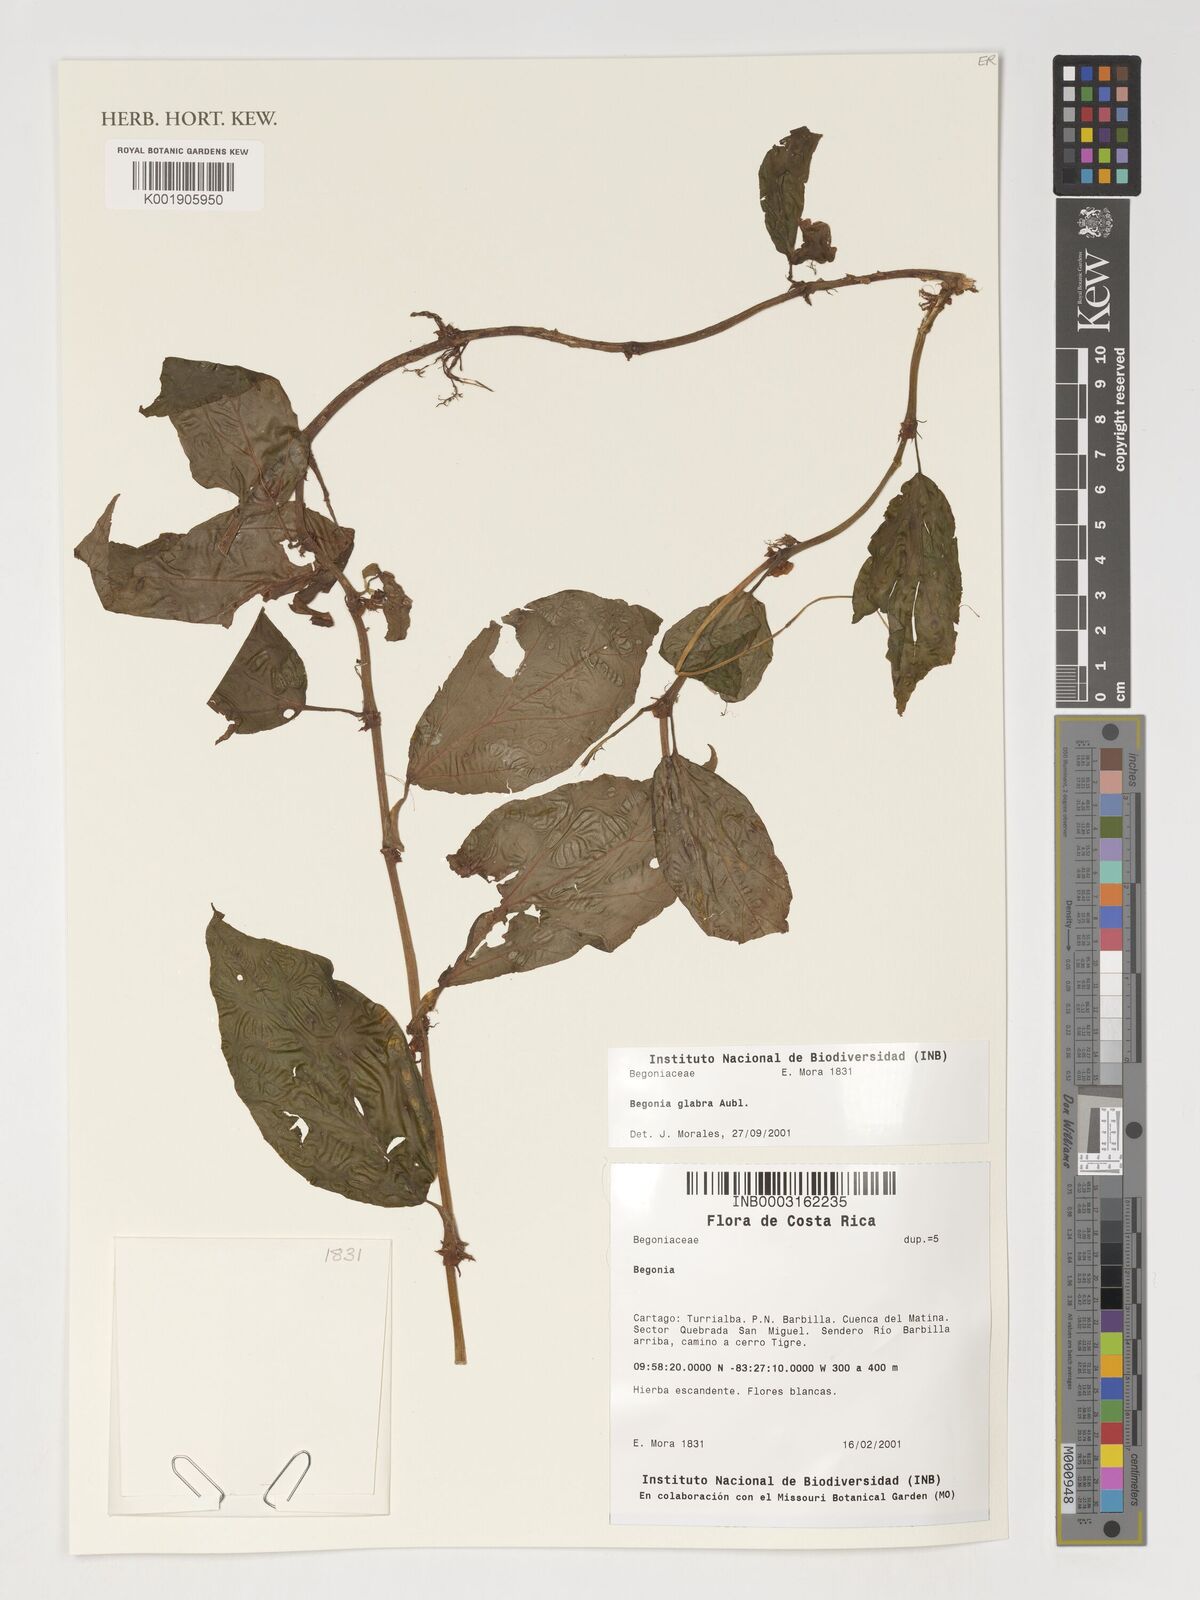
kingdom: Plantae
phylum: Tracheophyta
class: Magnoliopsida
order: Cucurbitales
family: Begoniaceae
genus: Begonia
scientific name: Begonia
